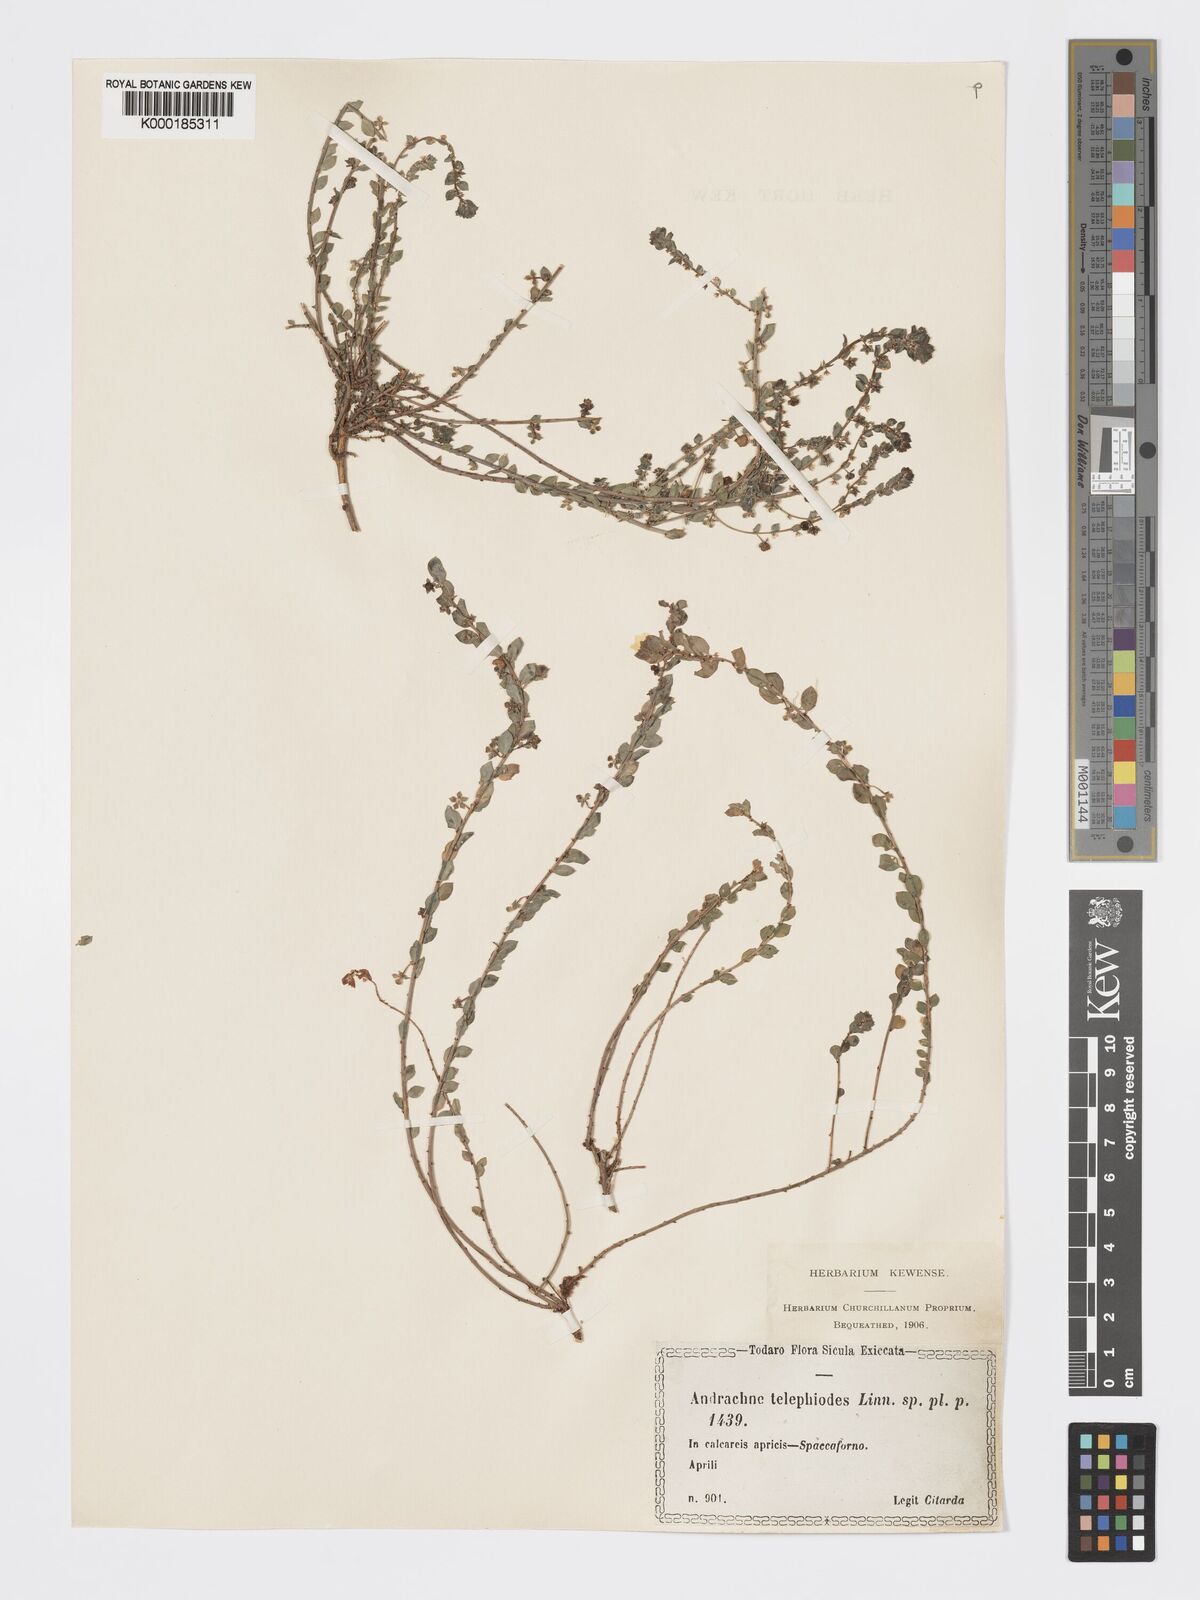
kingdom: Plantae
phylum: Tracheophyta
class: Magnoliopsida
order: Malpighiales
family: Phyllanthaceae
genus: Andrachne
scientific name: Andrachne telephioides
